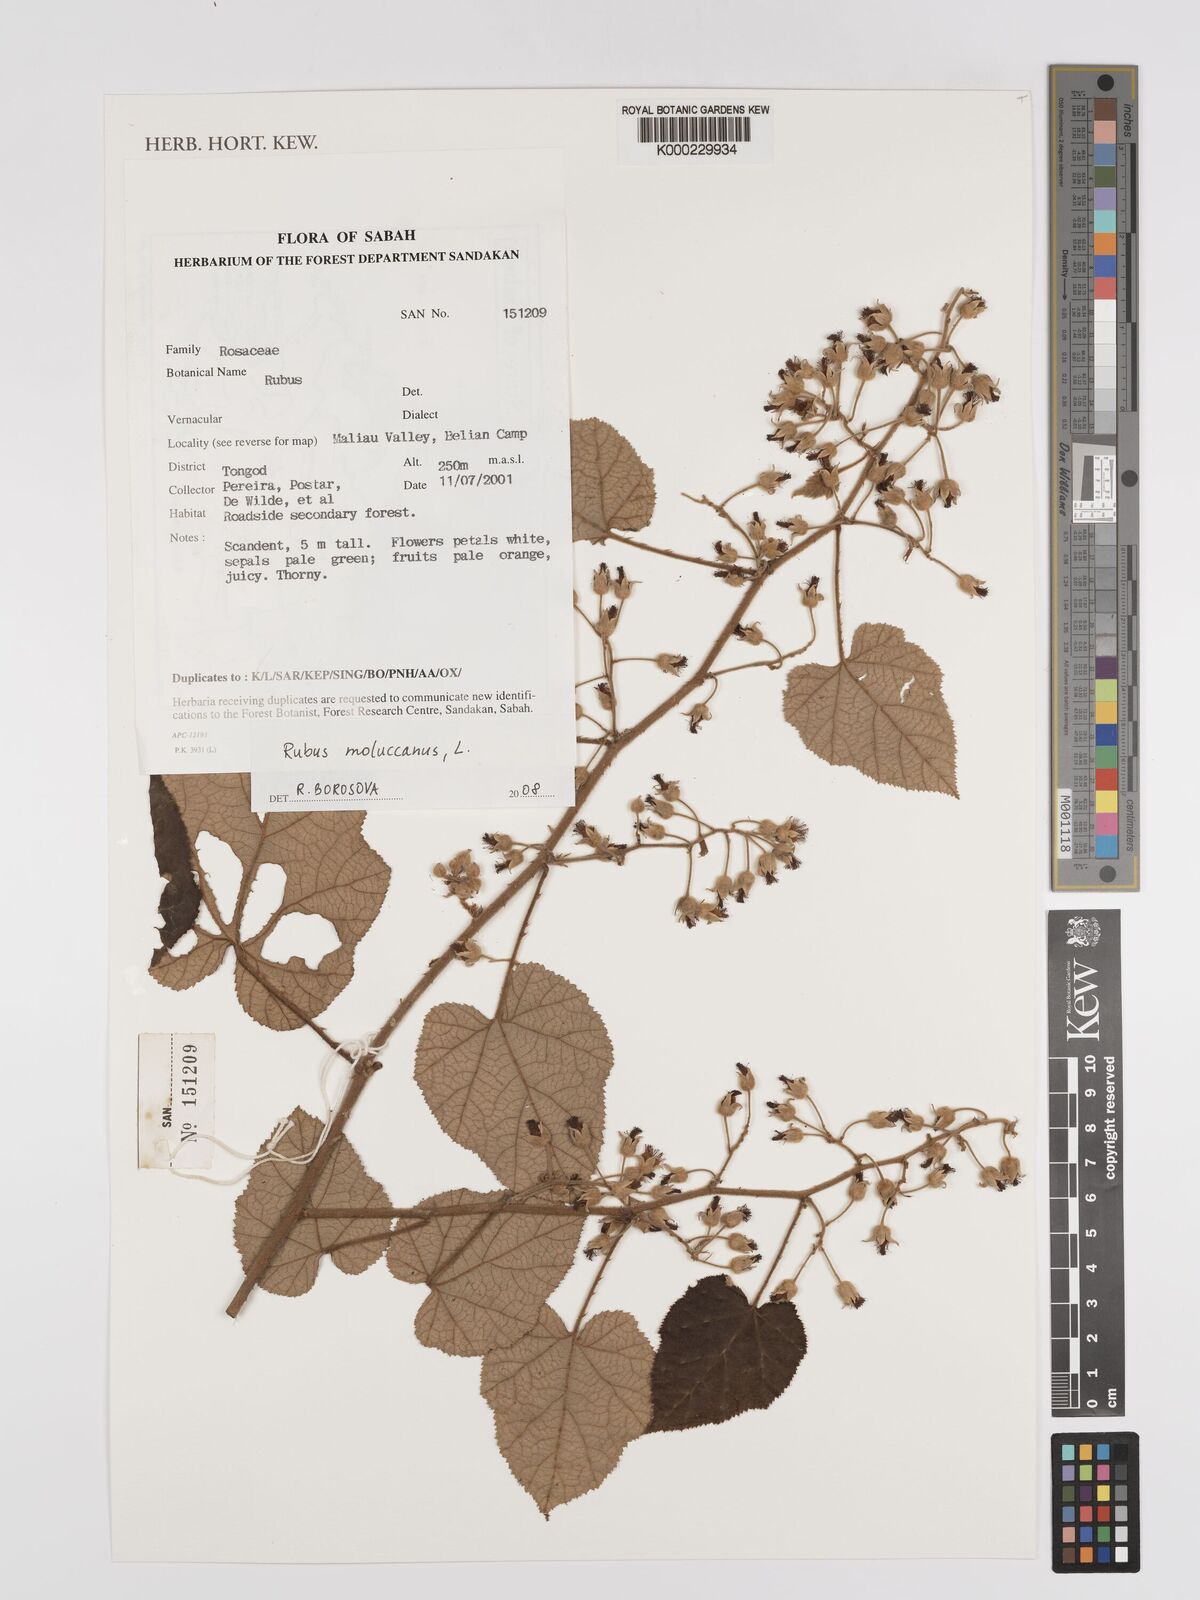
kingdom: Plantae
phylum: Tracheophyta
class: Magnoliopsida
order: Rosales
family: Rosaceae
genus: Rubus
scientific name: Rubus moluccanus
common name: Wild raspberry
